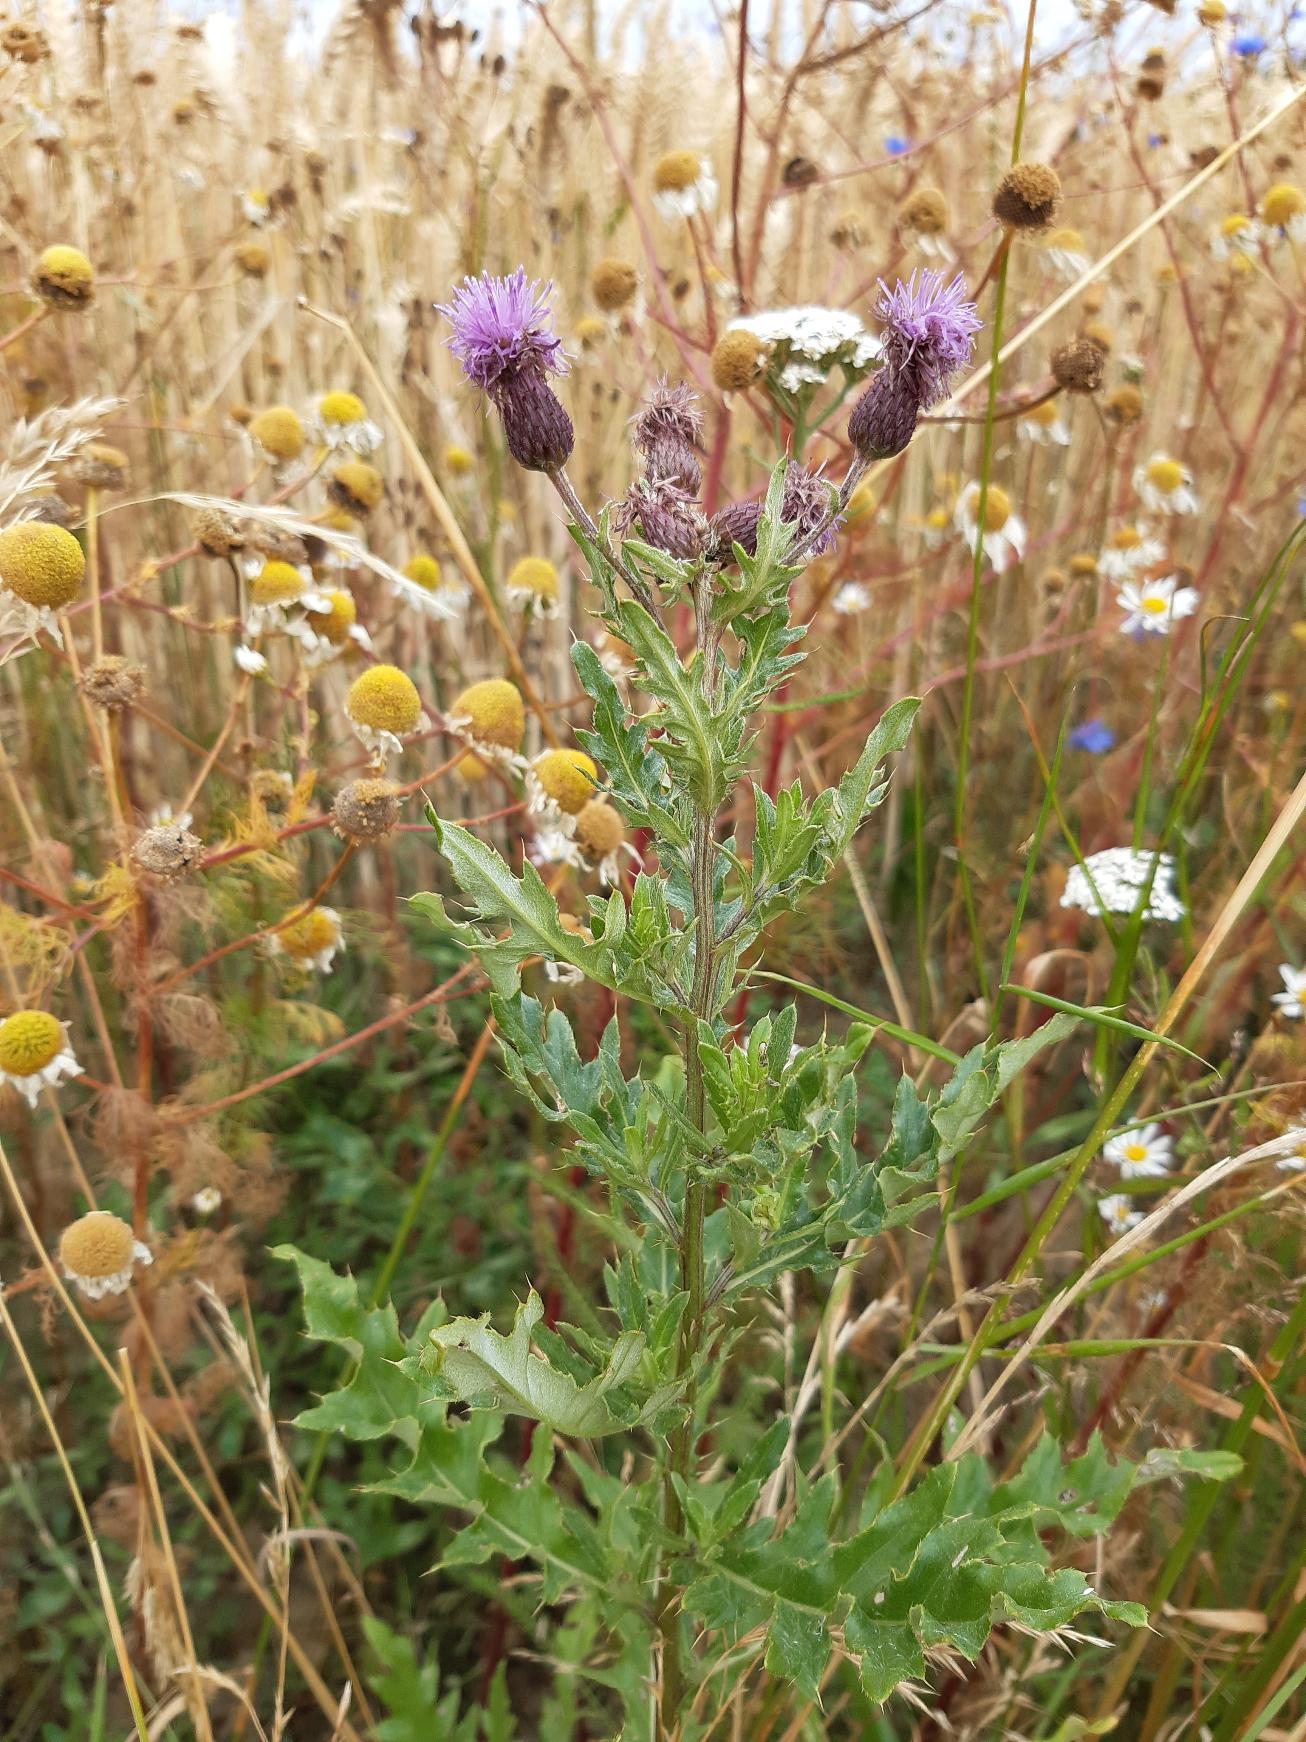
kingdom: Plantae
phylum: Tracheophyta
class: Magnoliopsida
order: Asterales
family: Asteraceae
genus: Cirsium
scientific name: Cirsium arvense
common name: Ager-tidsel
